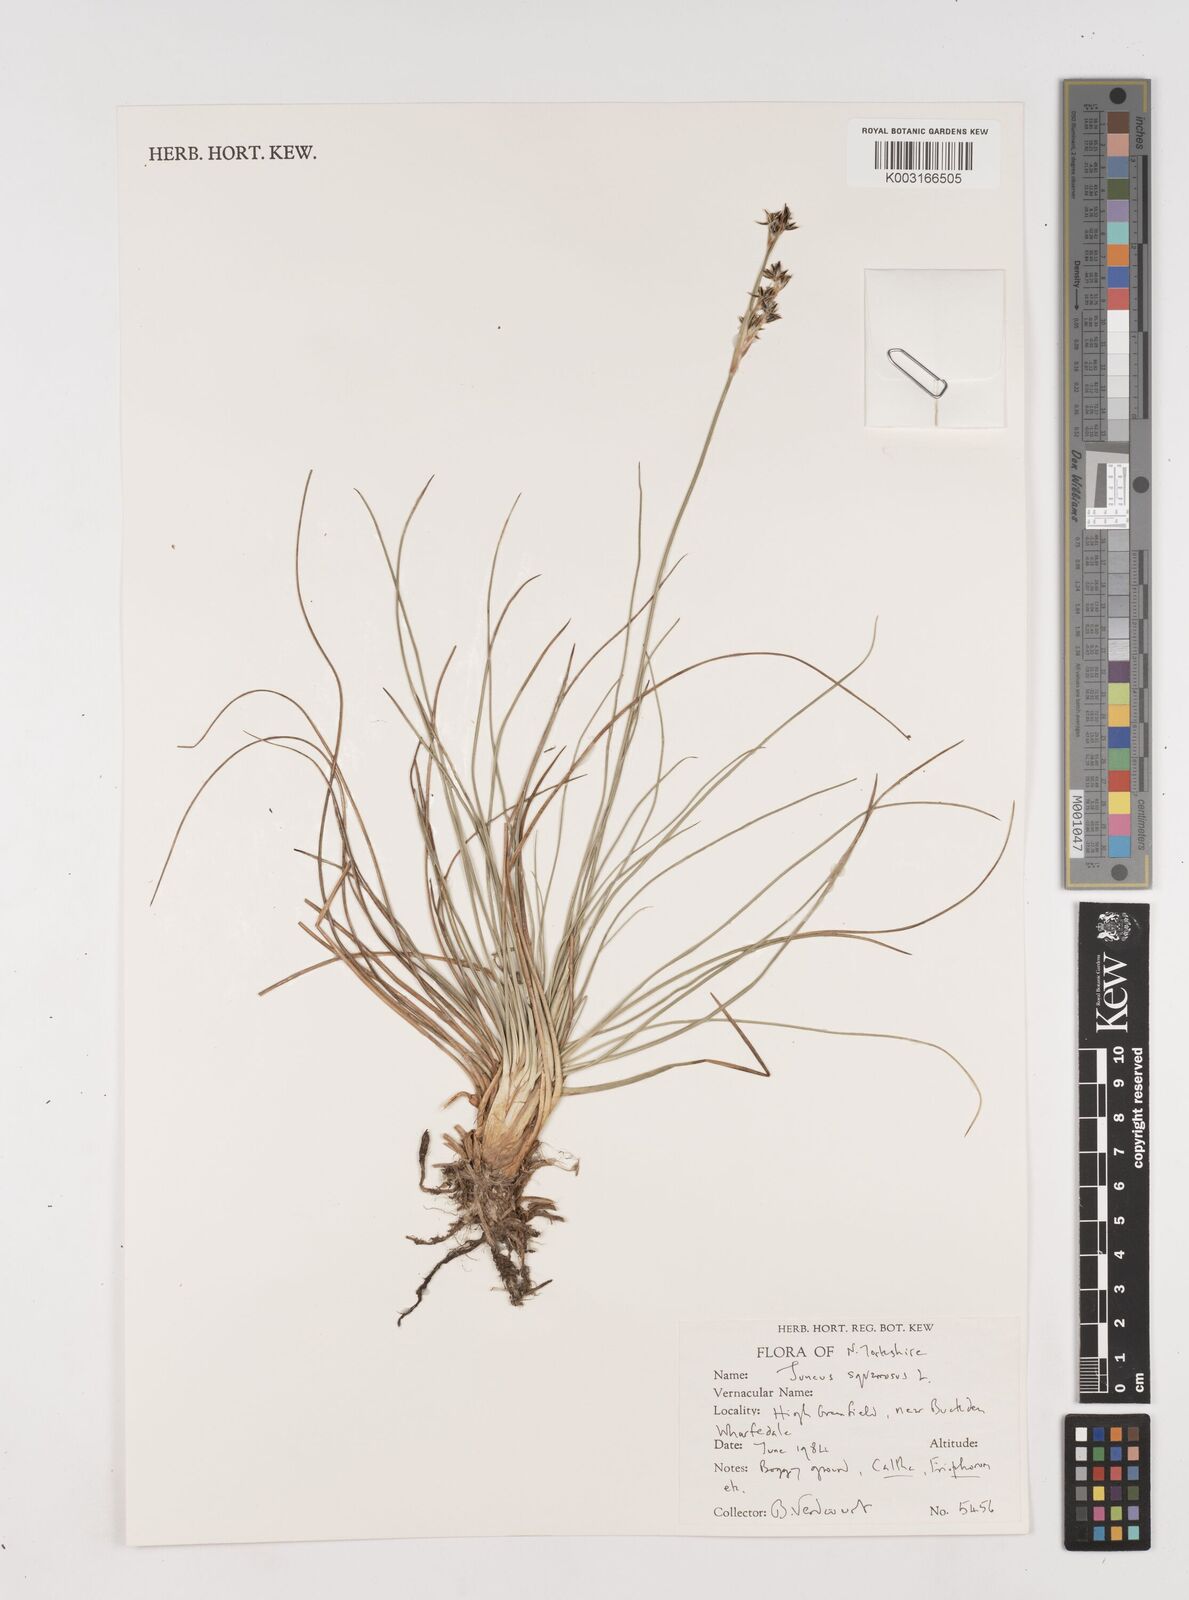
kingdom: Plantae
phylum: Tracheophyta
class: Liliopsida
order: Poales
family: Juncaceae
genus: Juncus
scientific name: Juncus squarrosus
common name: Heath rush
